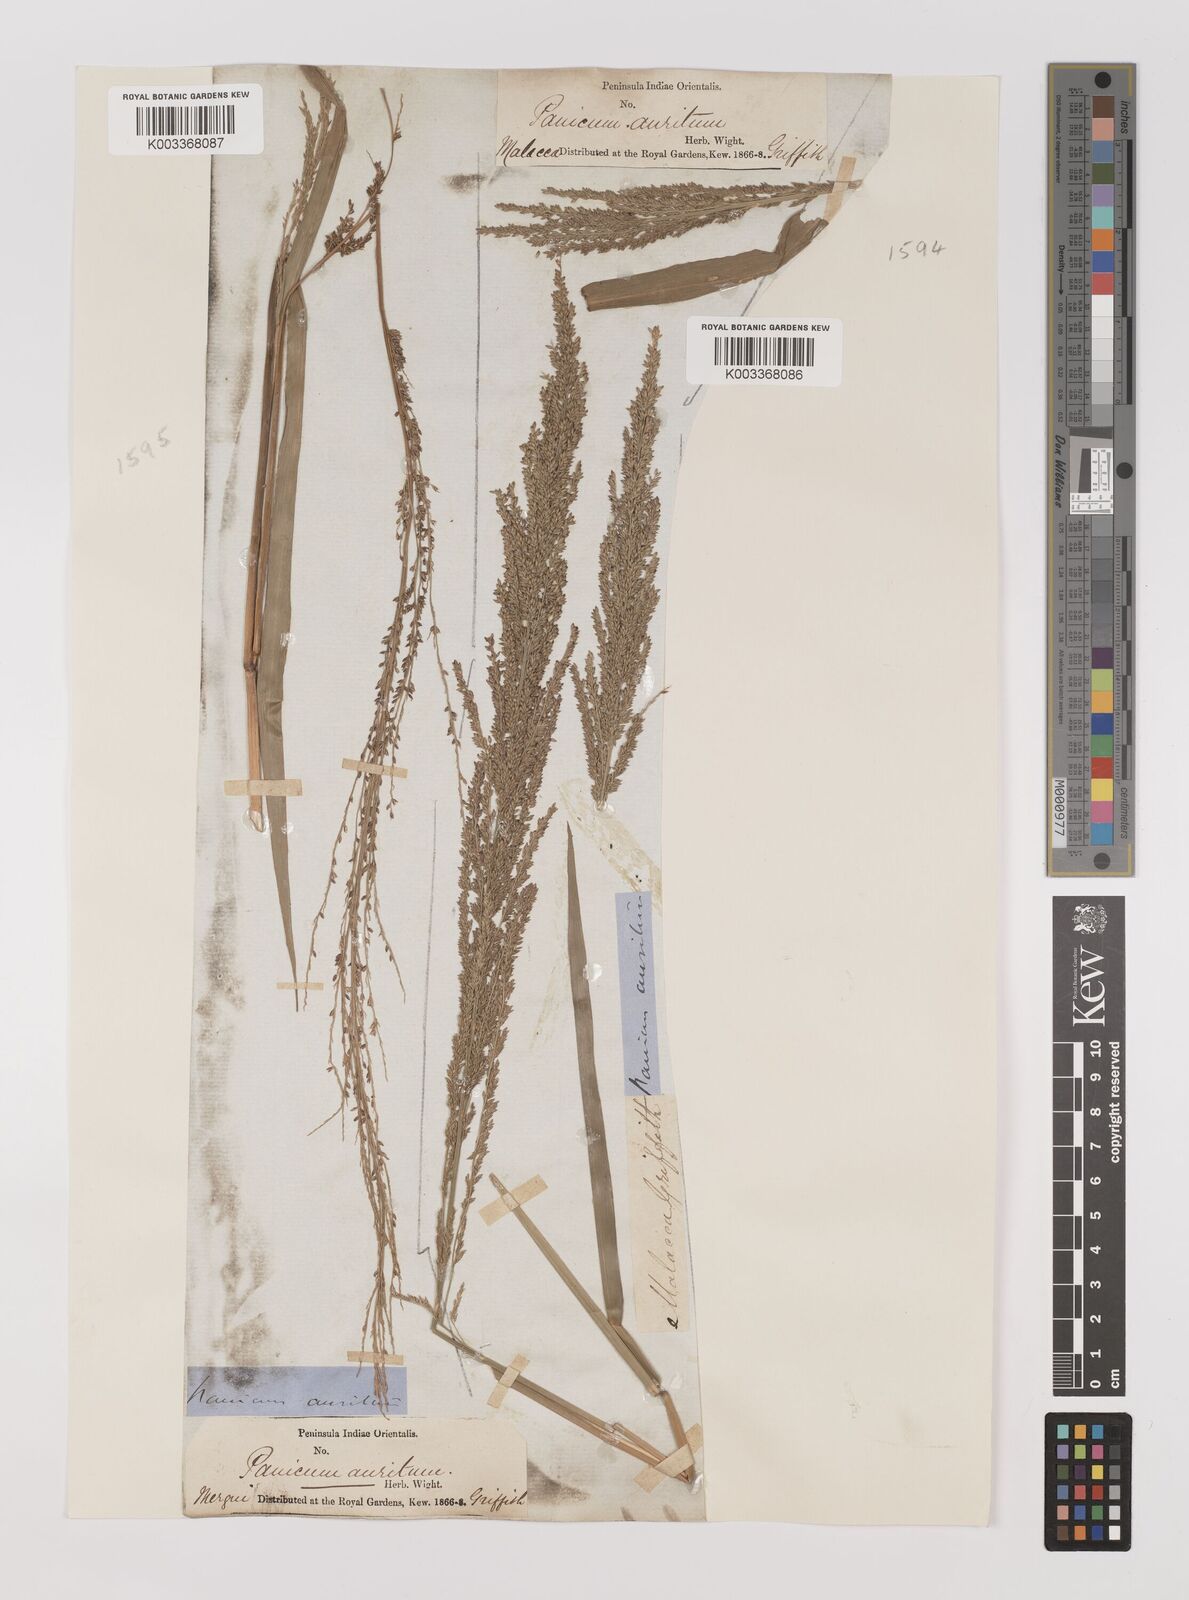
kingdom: Plantae
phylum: Tracheophyta
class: Liliopsida
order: Poales
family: Poaceae
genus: Hymenachne
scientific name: Hymenachne aurita
